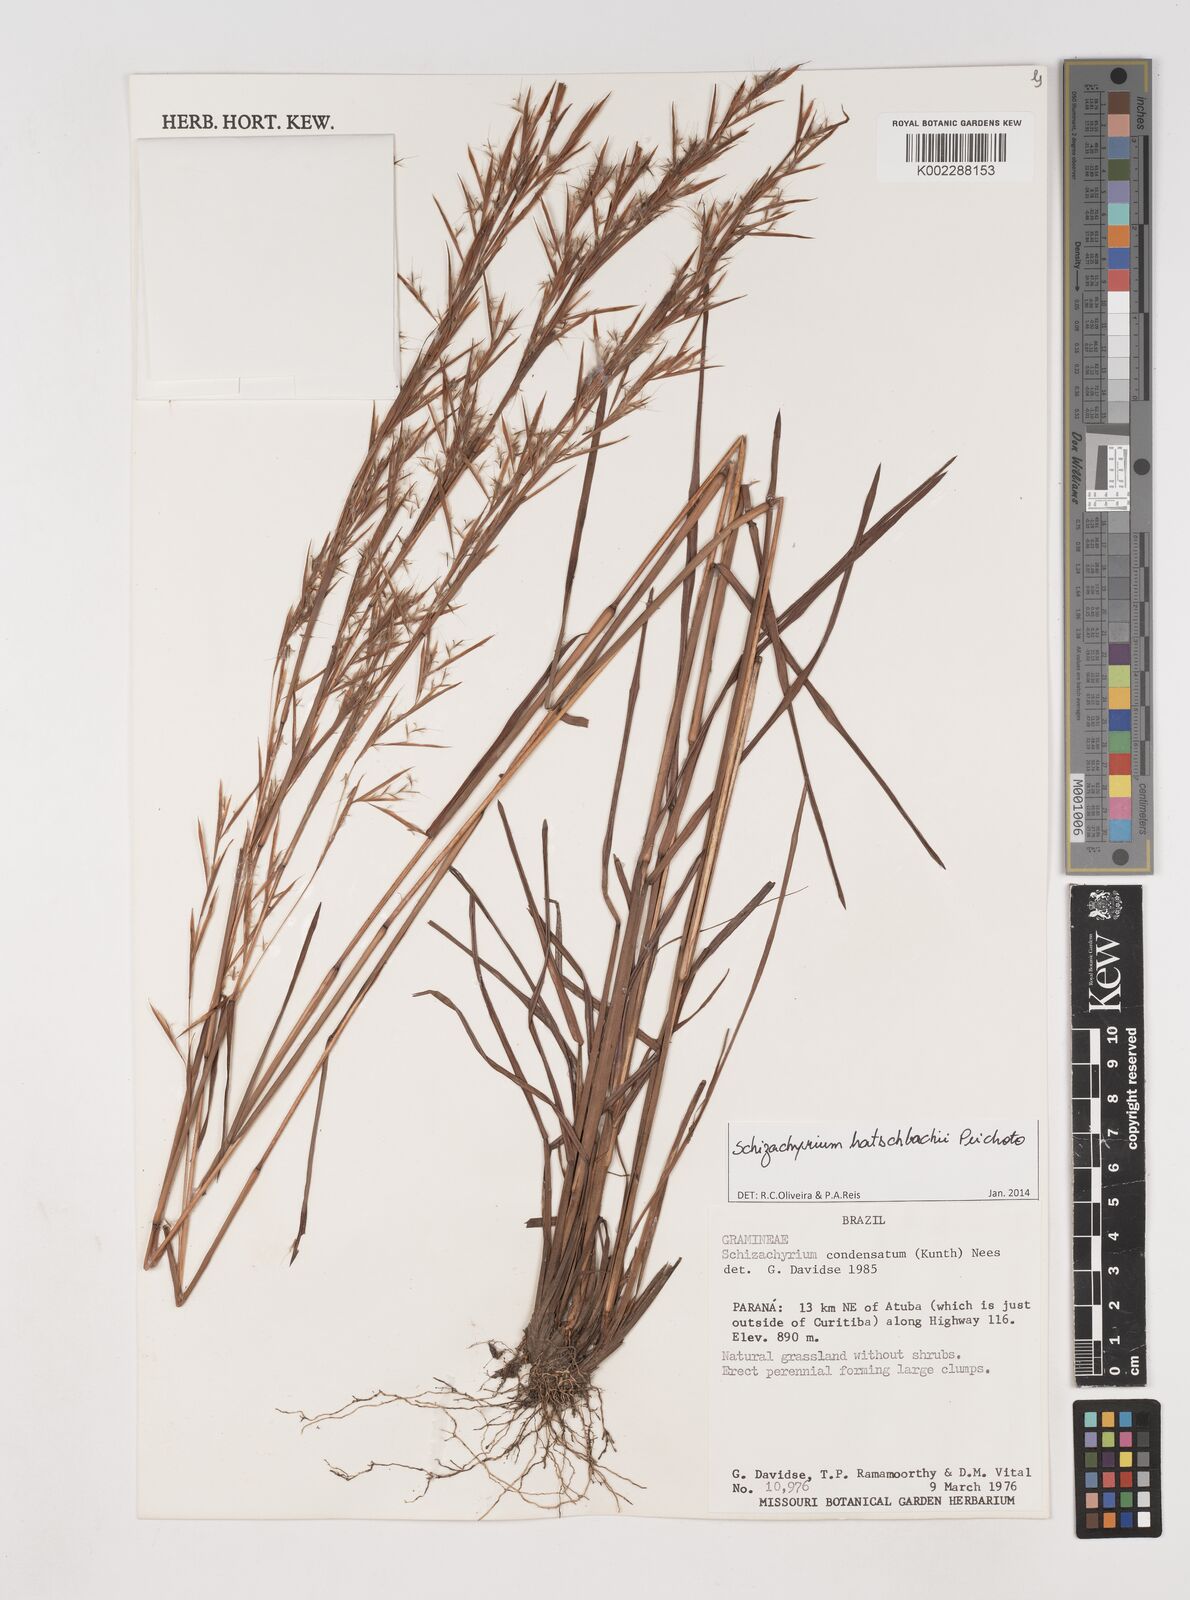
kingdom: Plantae
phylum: Tracheophyta
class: Liliopsida
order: Poales
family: Poaceae
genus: Schizachyrium
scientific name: Schizachyrium hatschbachii
